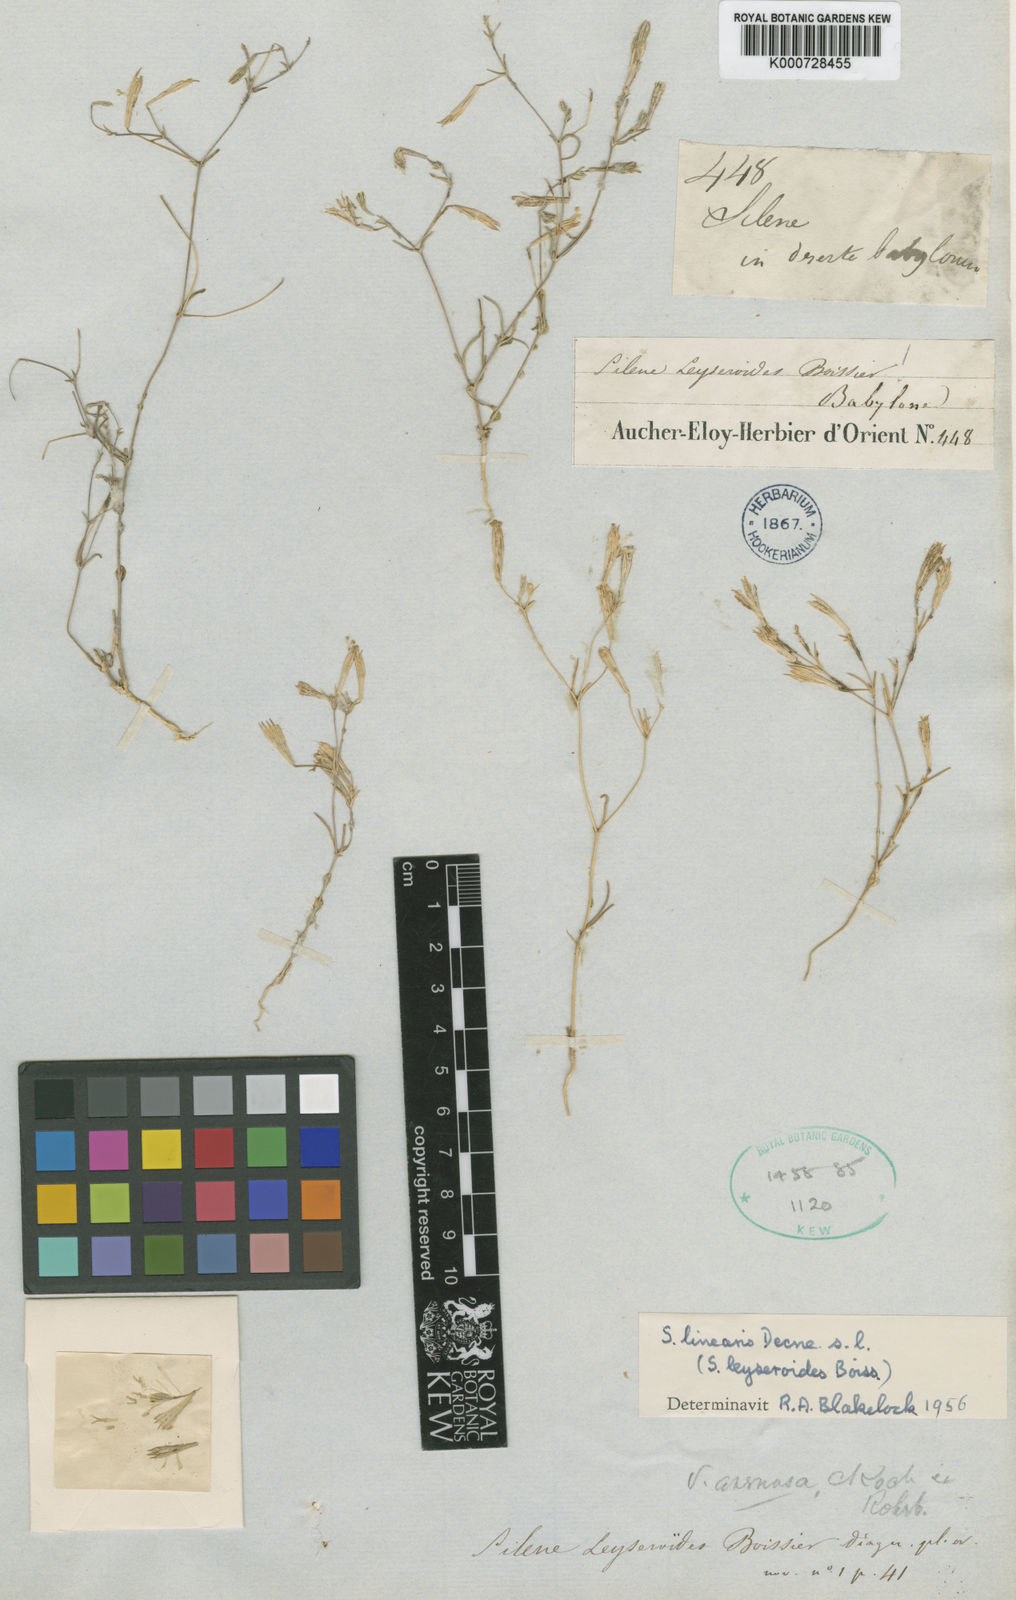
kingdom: Plantae
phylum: Tracheophyta
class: Magnoliopsida
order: Caryophyllales
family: Caryophyllaceae
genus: Silene
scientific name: Silene arenosa
